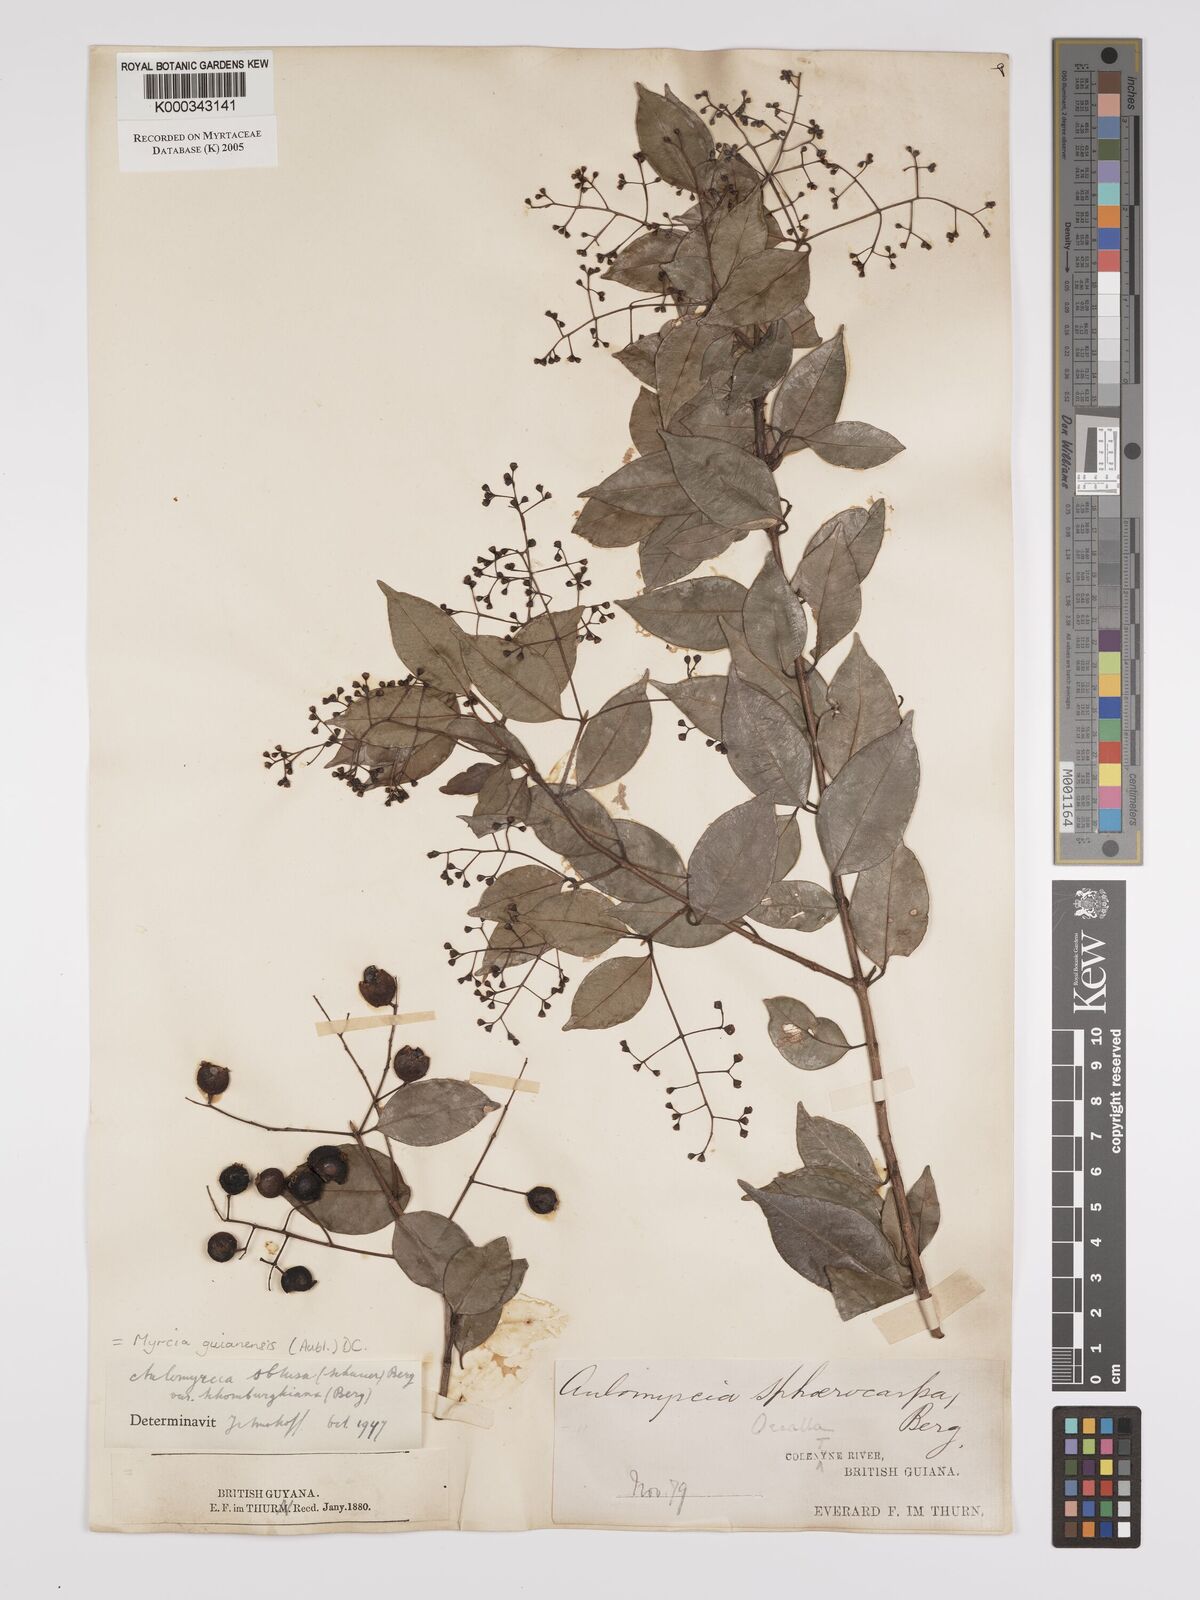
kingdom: Plantae
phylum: Tracheophyta
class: Magnoliopsida
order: Myrtales
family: Myrtaceae
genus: Myrcia
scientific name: Myrcia guianensis
